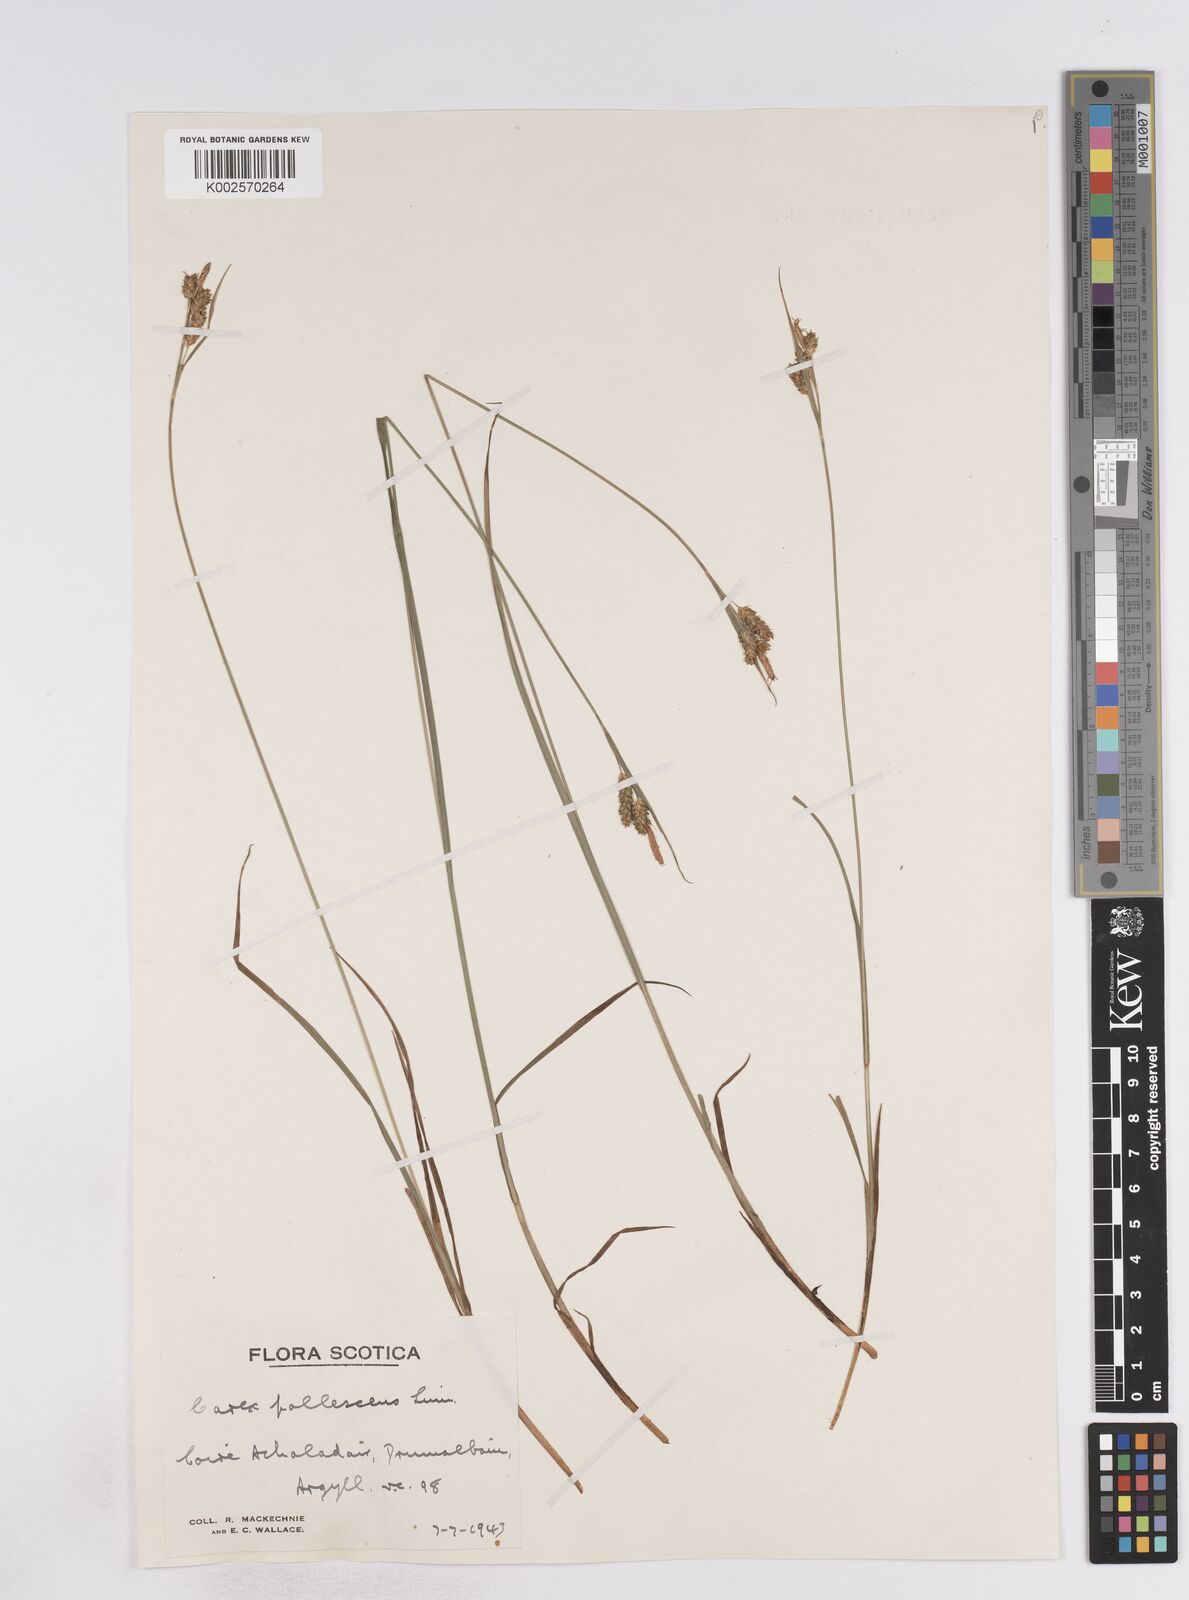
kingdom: Plantae
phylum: Tracheophyta
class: Liliopsida
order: Poales
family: Cyperaceae
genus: Carex
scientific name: Carex pallescens
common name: Pale sedge
